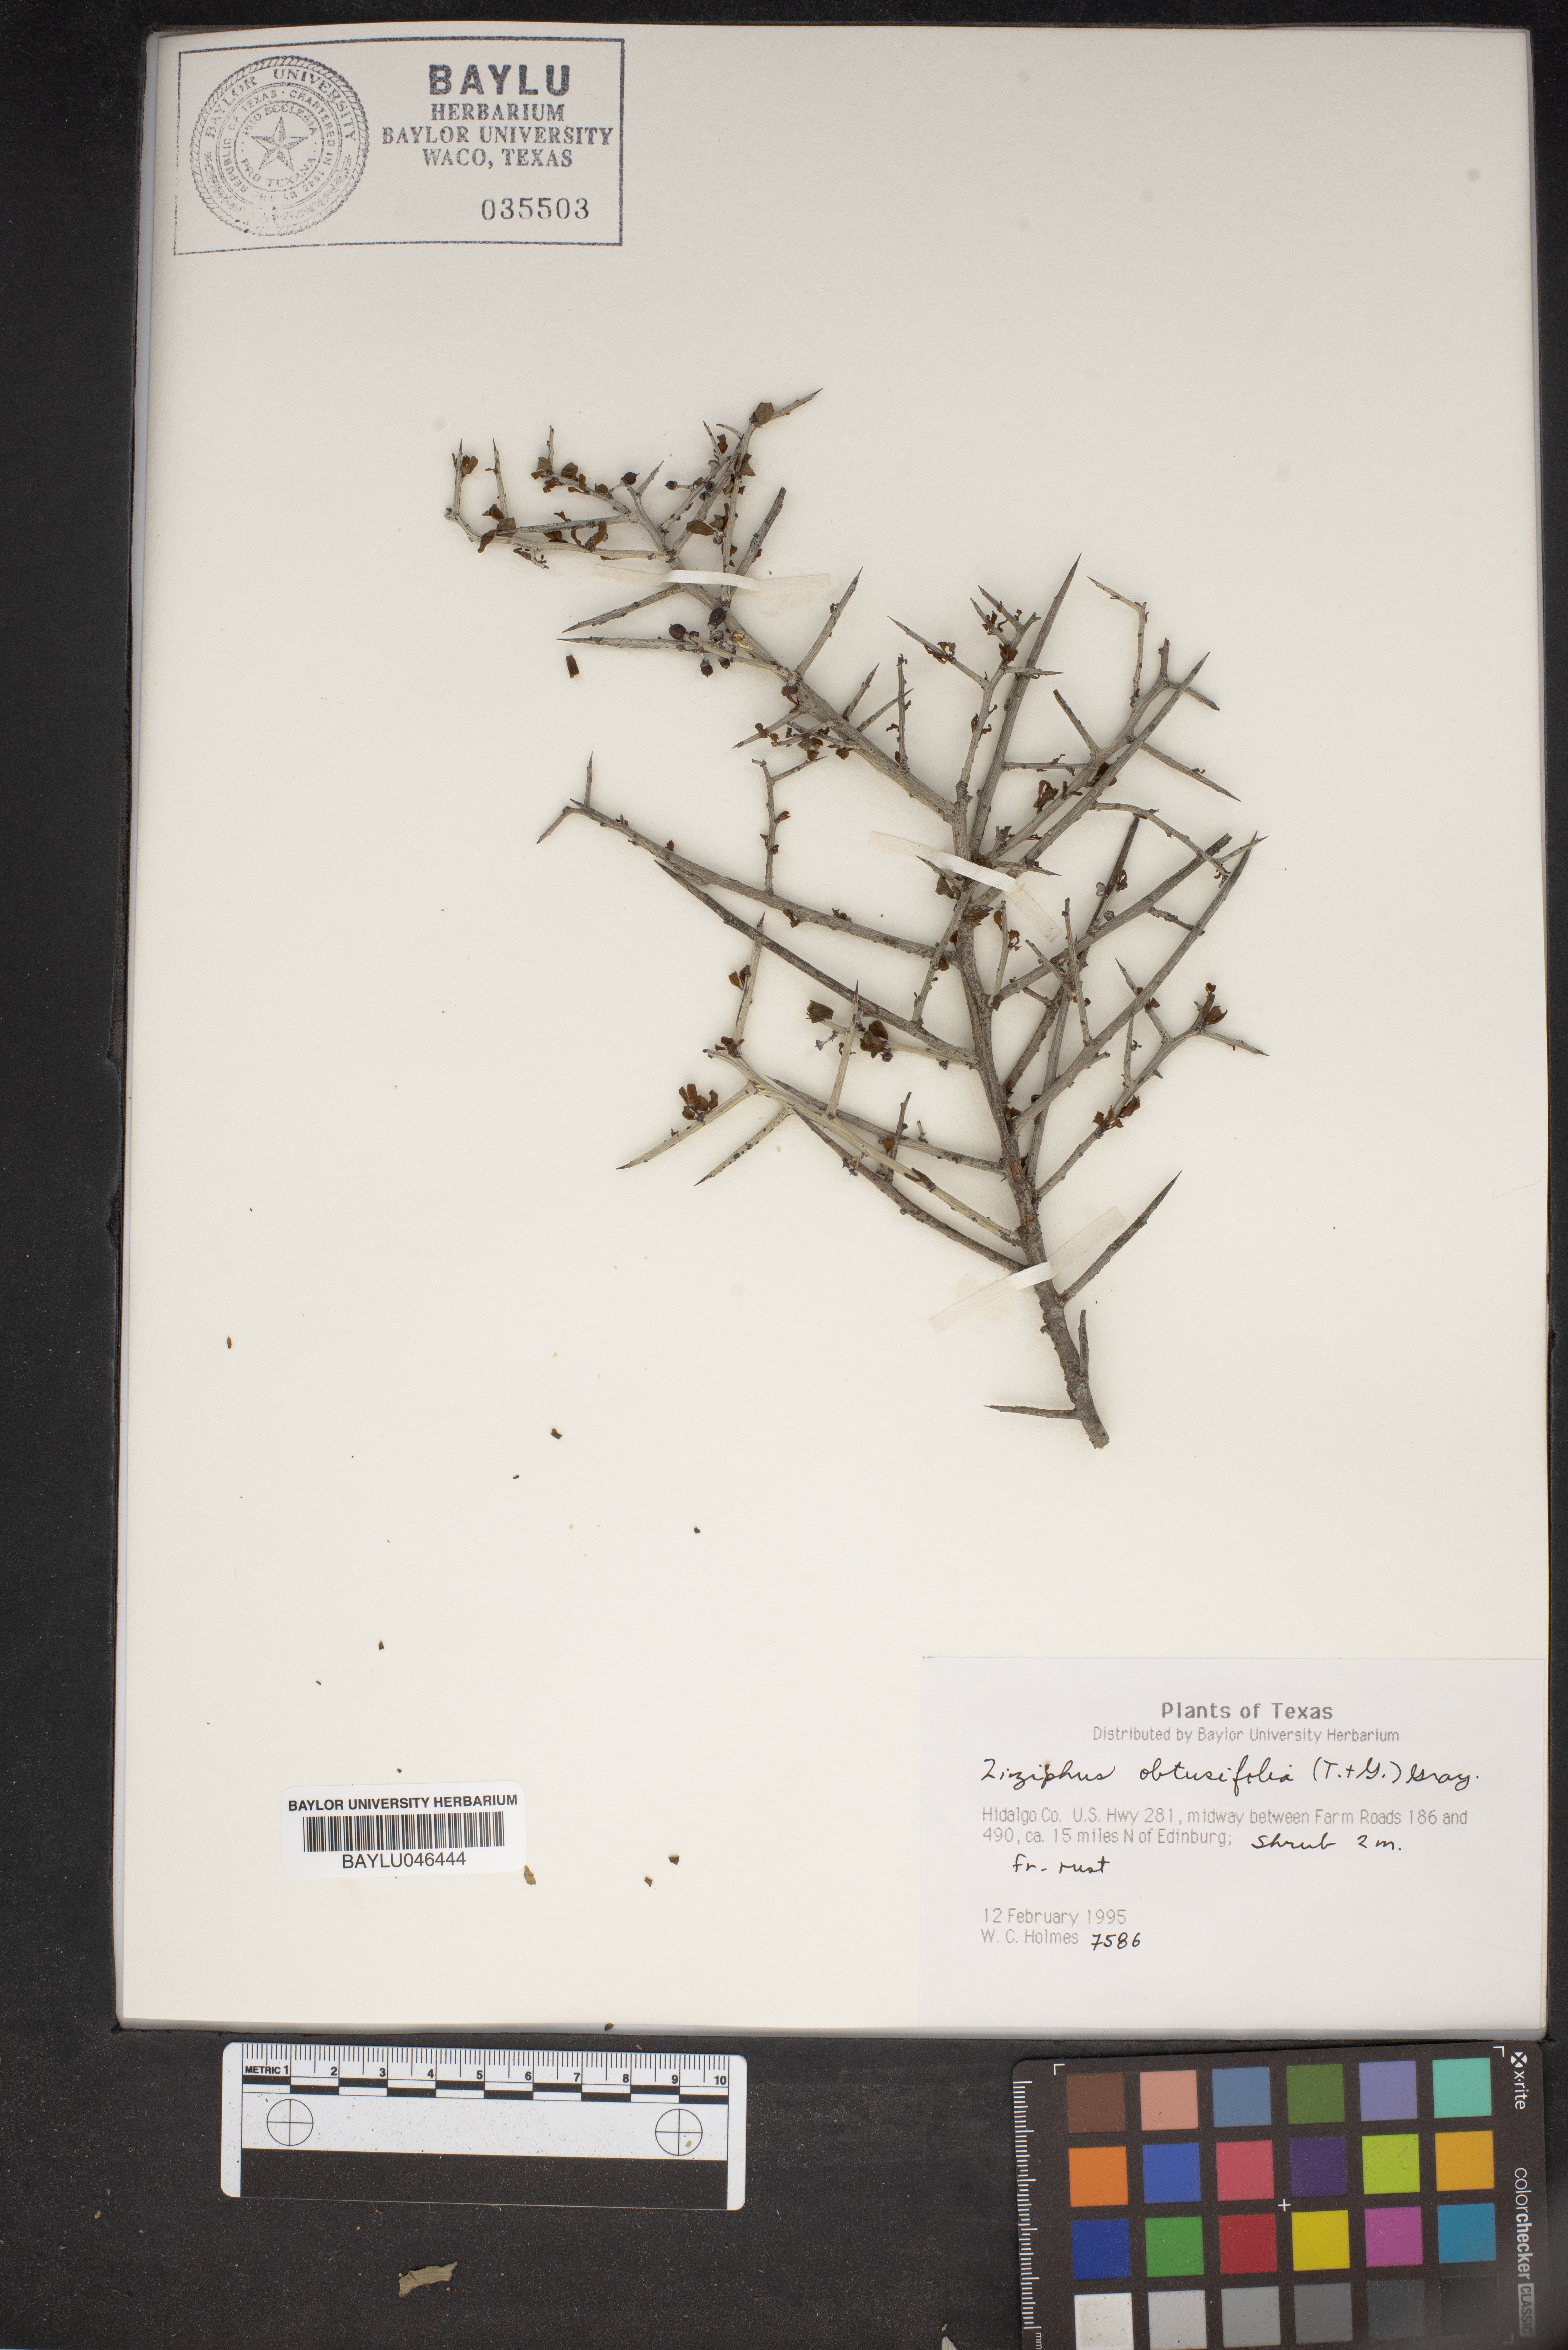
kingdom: Plantae
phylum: Tracheophyta
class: Magnoliopsida
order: Rosales
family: Rhamnaceae
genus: Sarcomphalus
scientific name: Sarcomphalus obtusifolius
